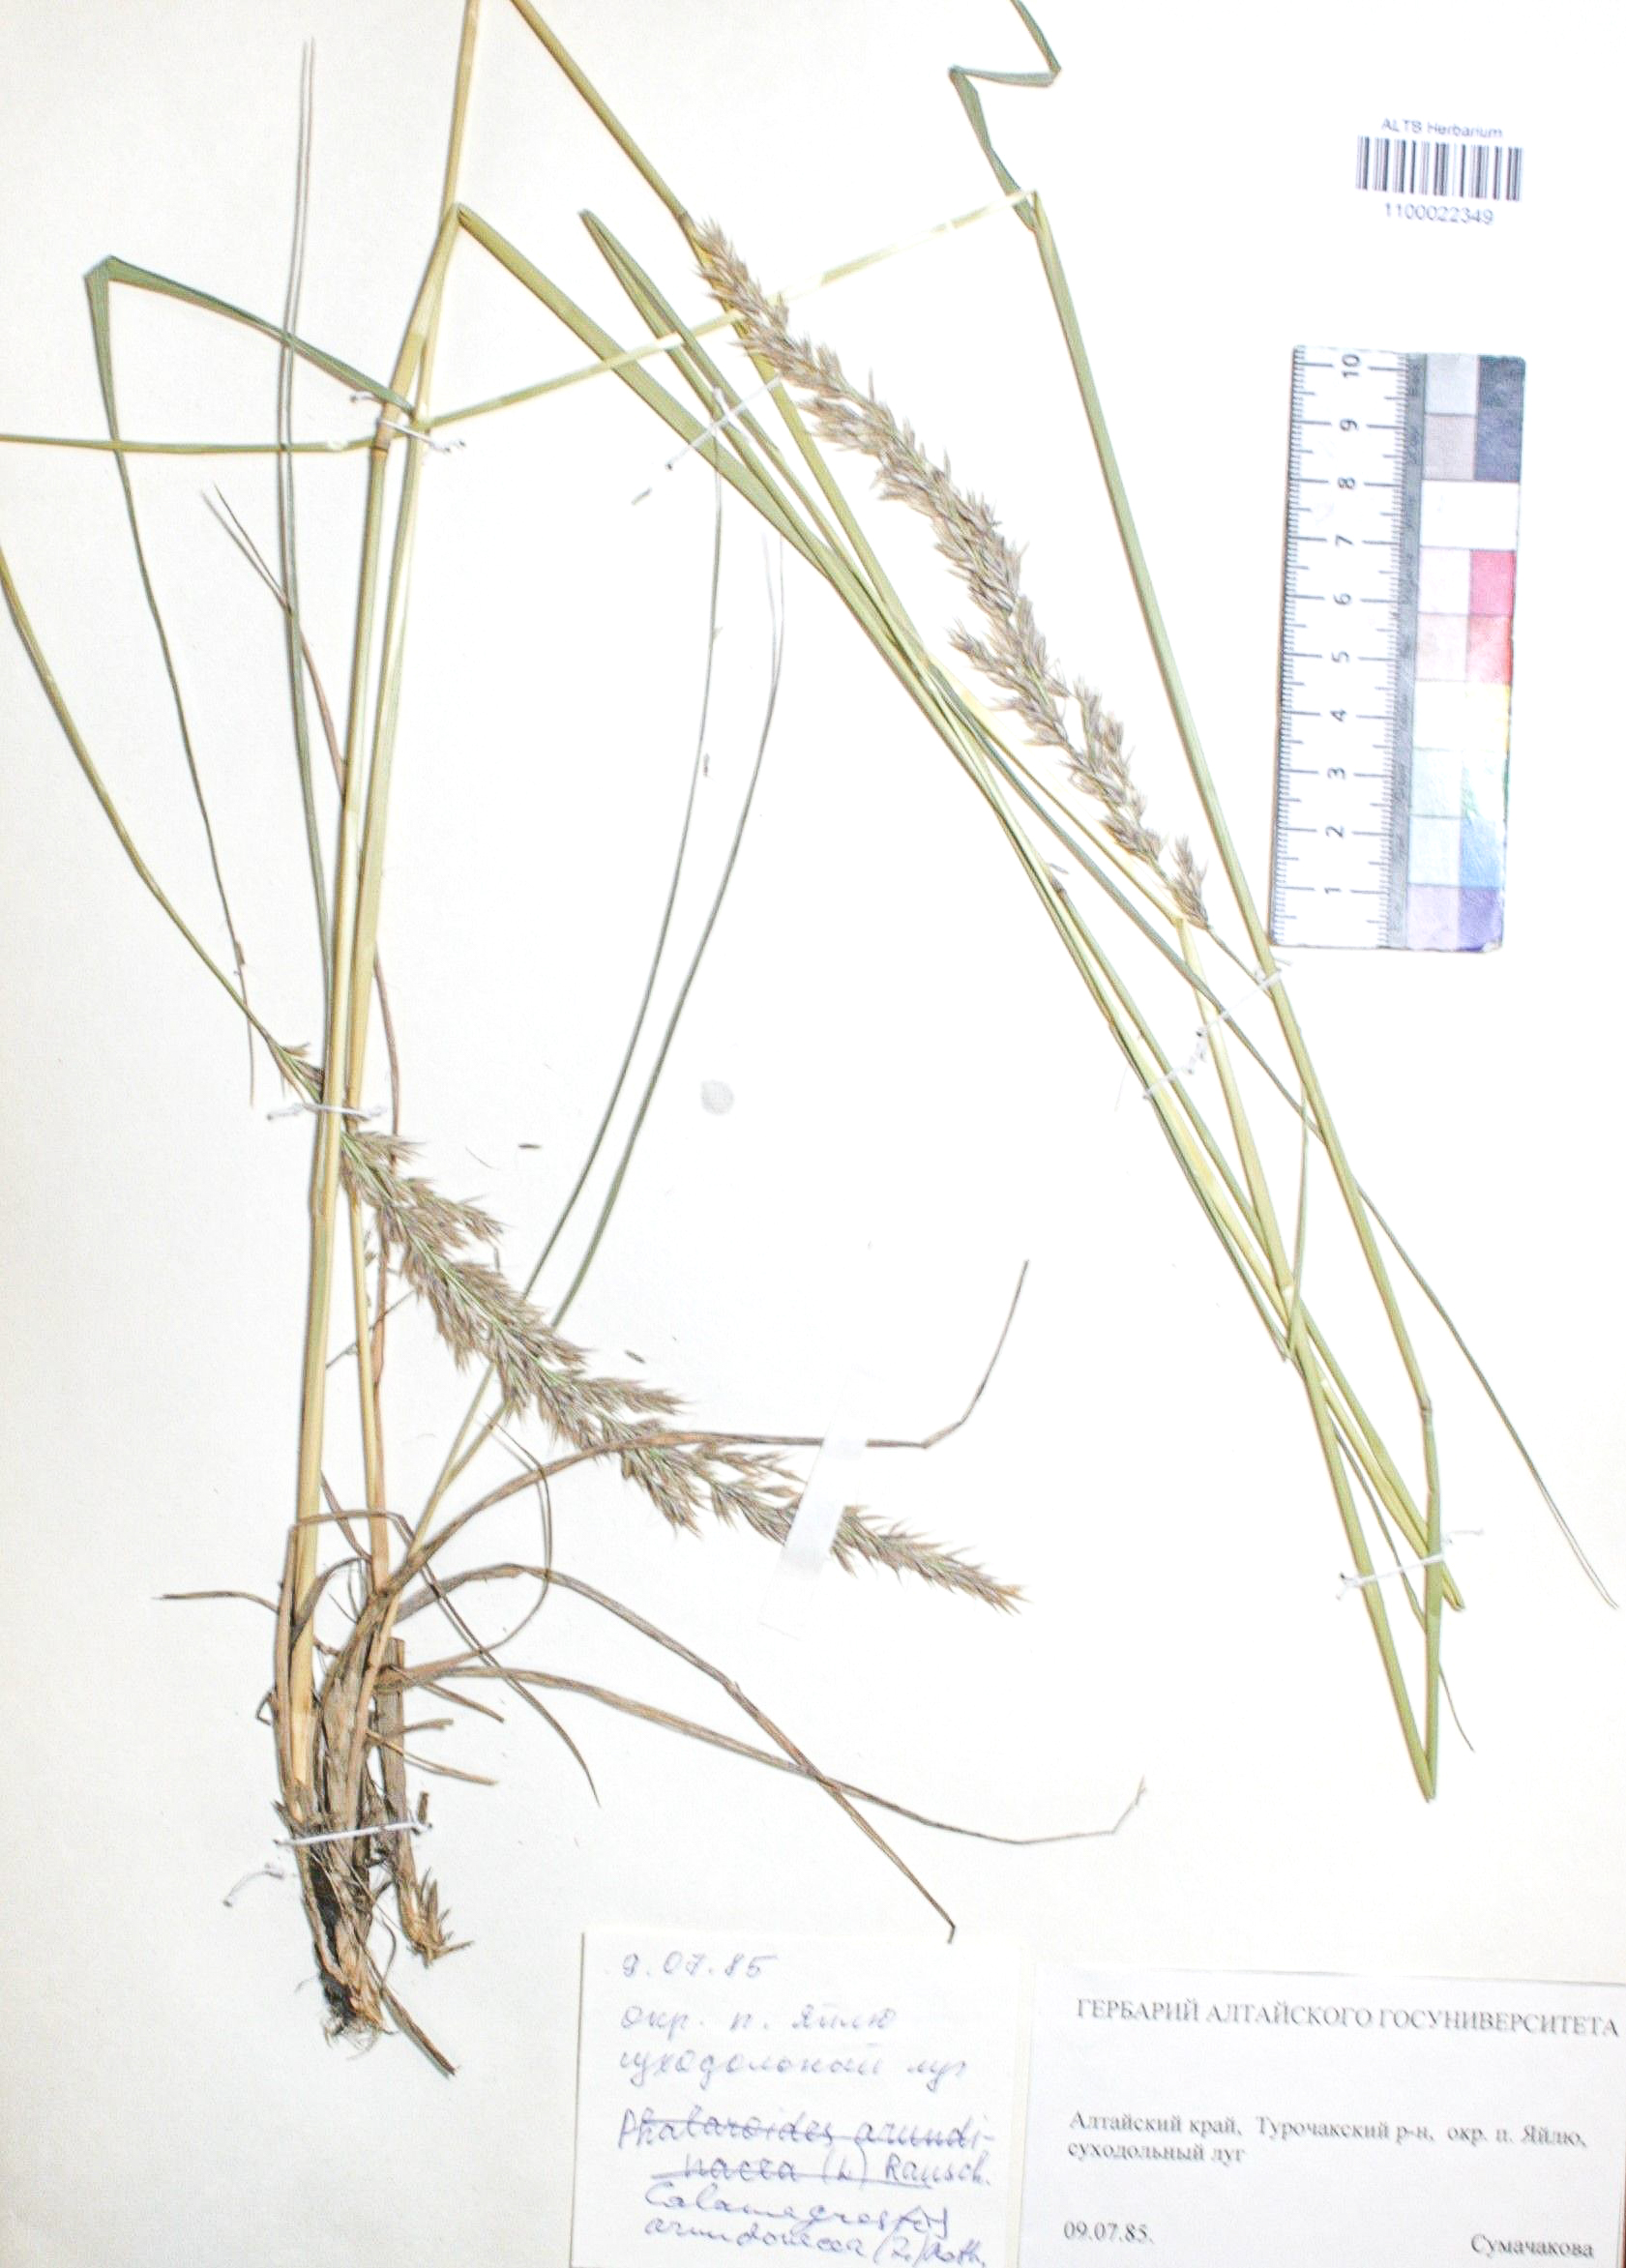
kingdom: Plantae
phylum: Tracheophyta
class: Liliopsida
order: Poales
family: Poaceae
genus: Calamagrostis
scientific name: Calamagrostis arundinacea
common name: Metskastik
